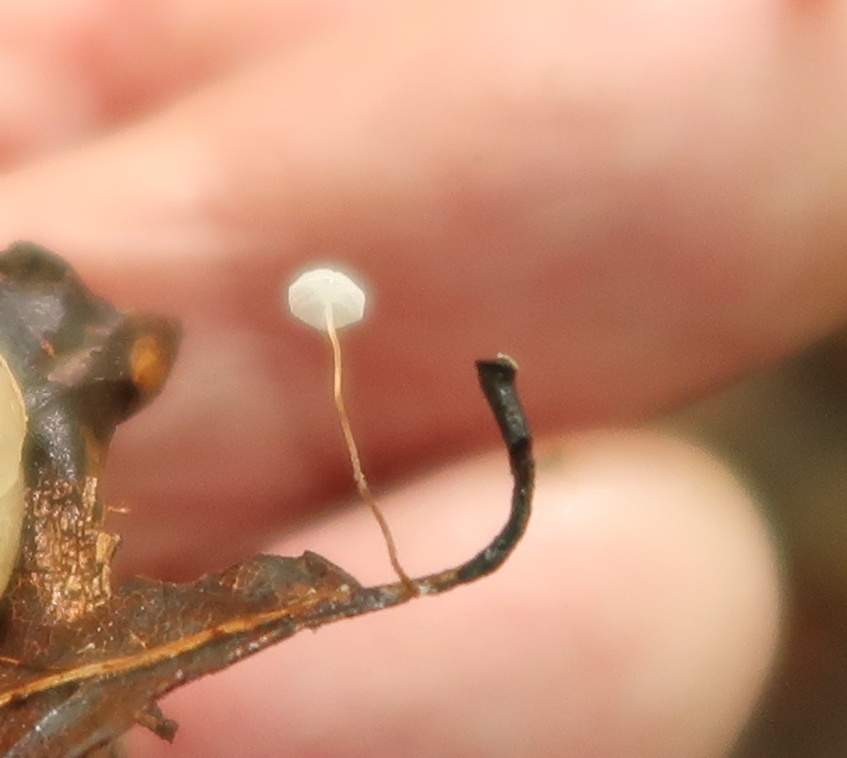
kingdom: Fungi
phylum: Basidiomycota
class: Agaricomycetes
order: Agaricales
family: Physalacriaceae
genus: Rhizomarasmius
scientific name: Rhizomarasmius setosus
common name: bøgeblads-bruskhat
